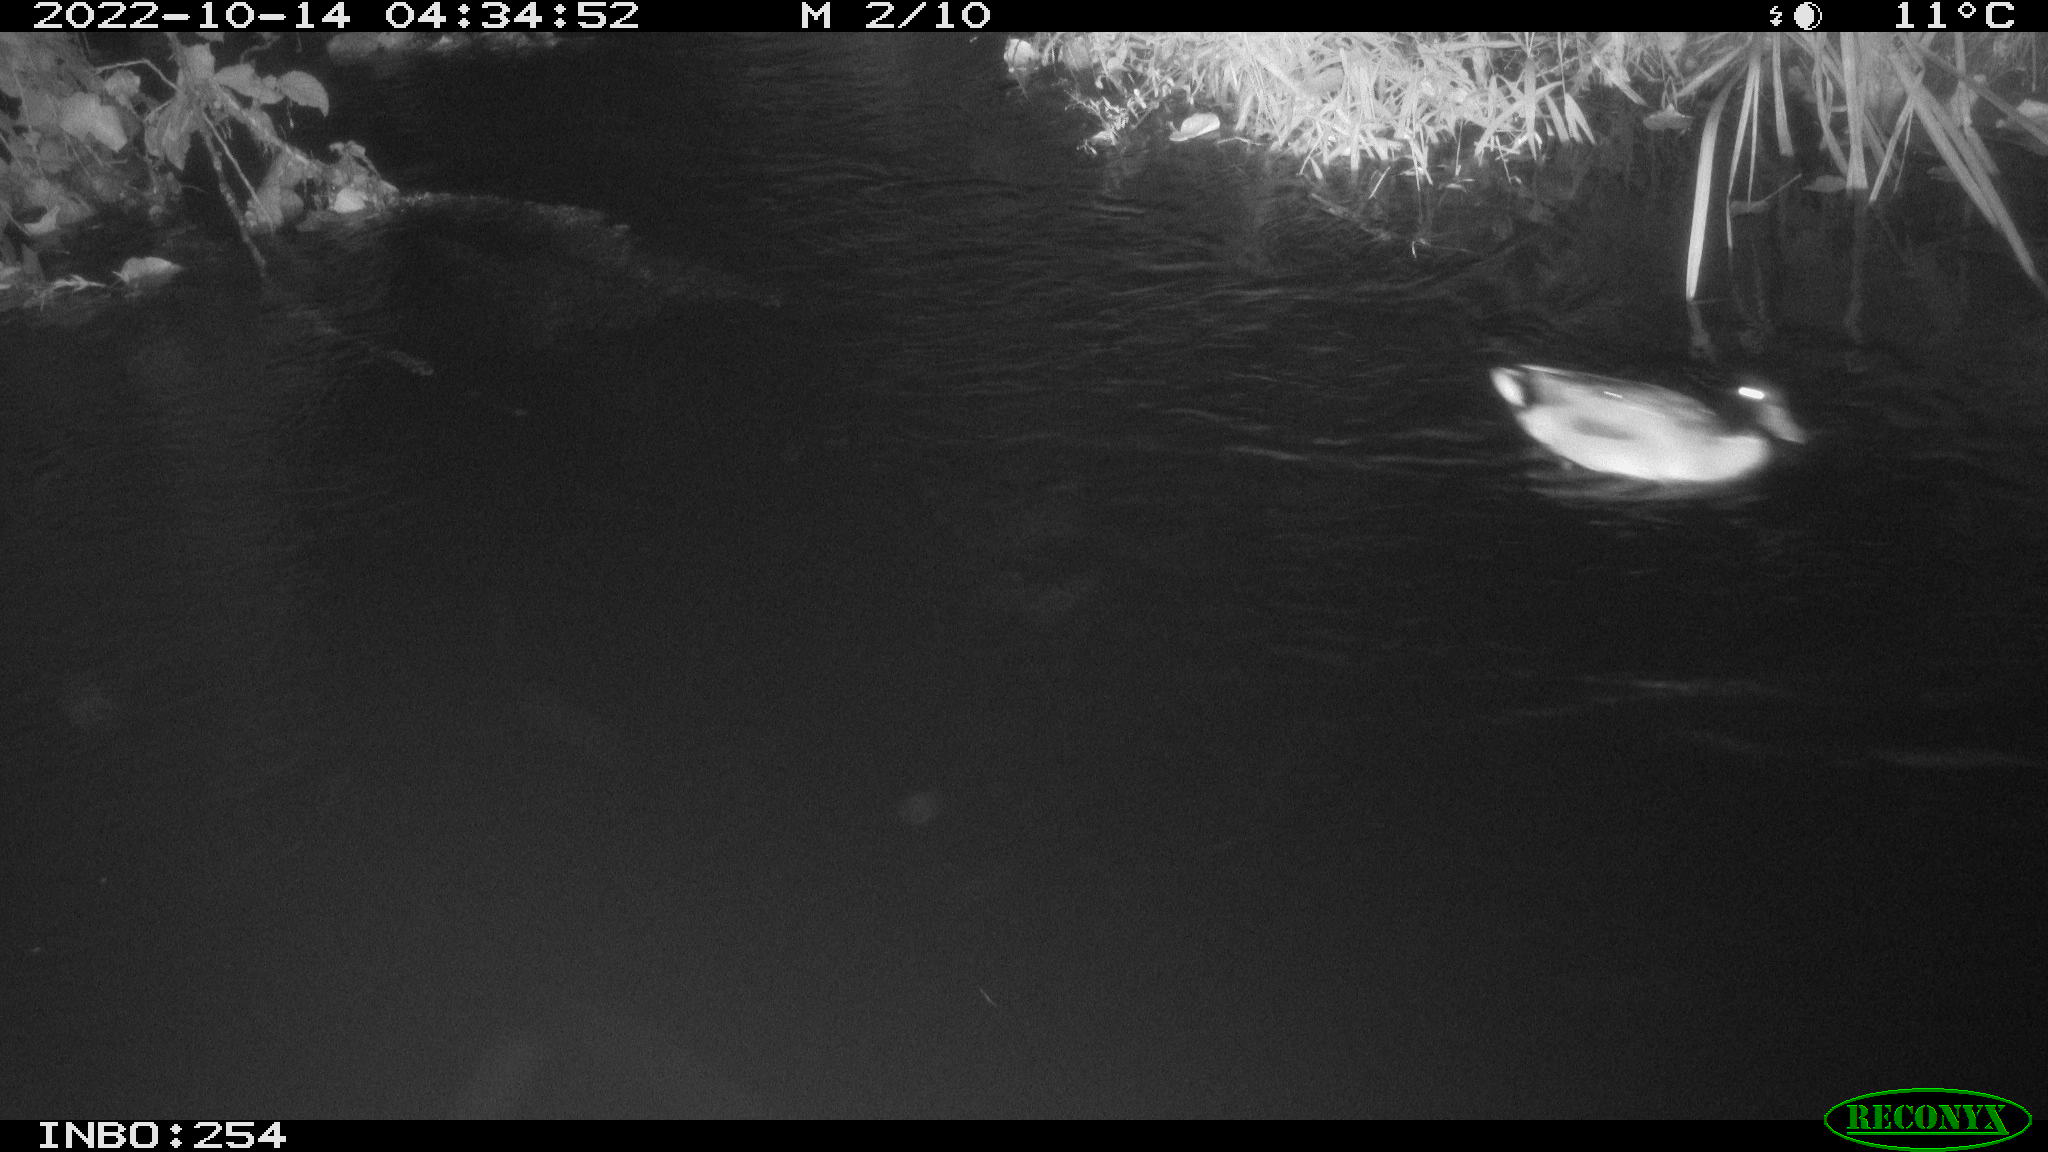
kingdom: Animalia
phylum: Chordata
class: Aves
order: Anseriformes
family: Anatidae
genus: Anas
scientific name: Anas
